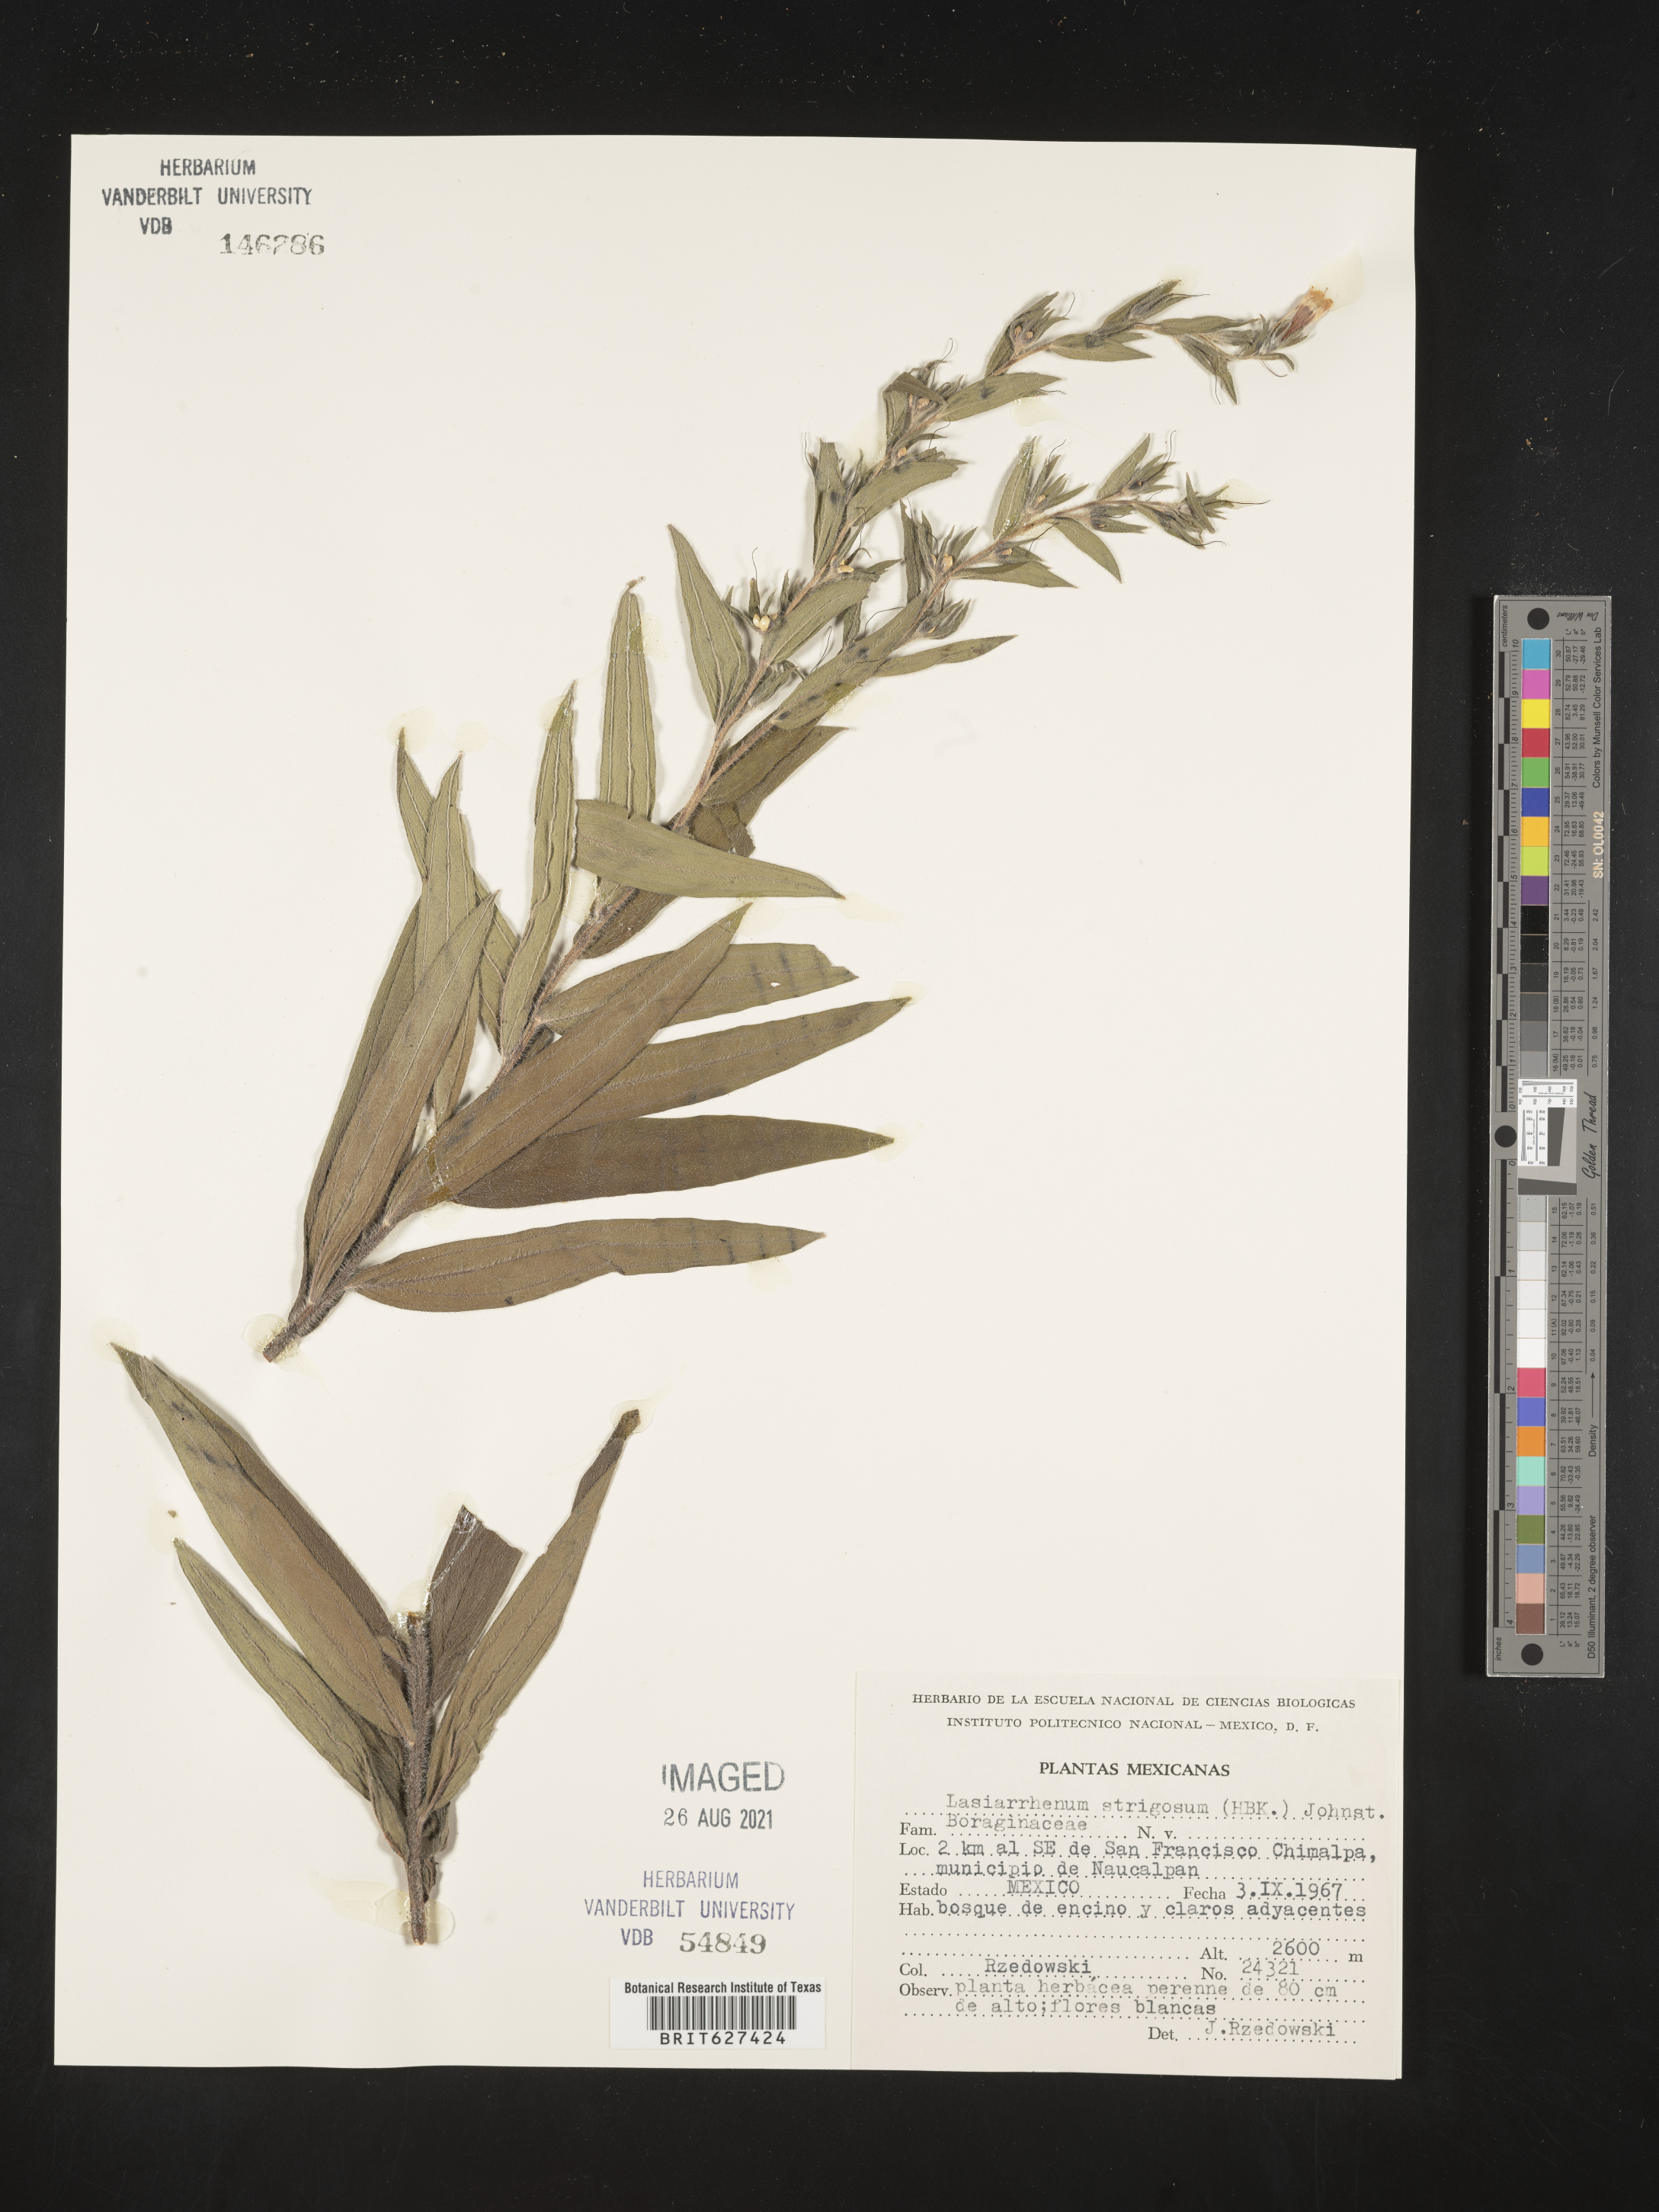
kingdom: Plantae
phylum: Tracheophyta
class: Magnoliopsida
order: Boraginales
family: Boraginaceae
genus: Lithospermum
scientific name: Lithospermum
